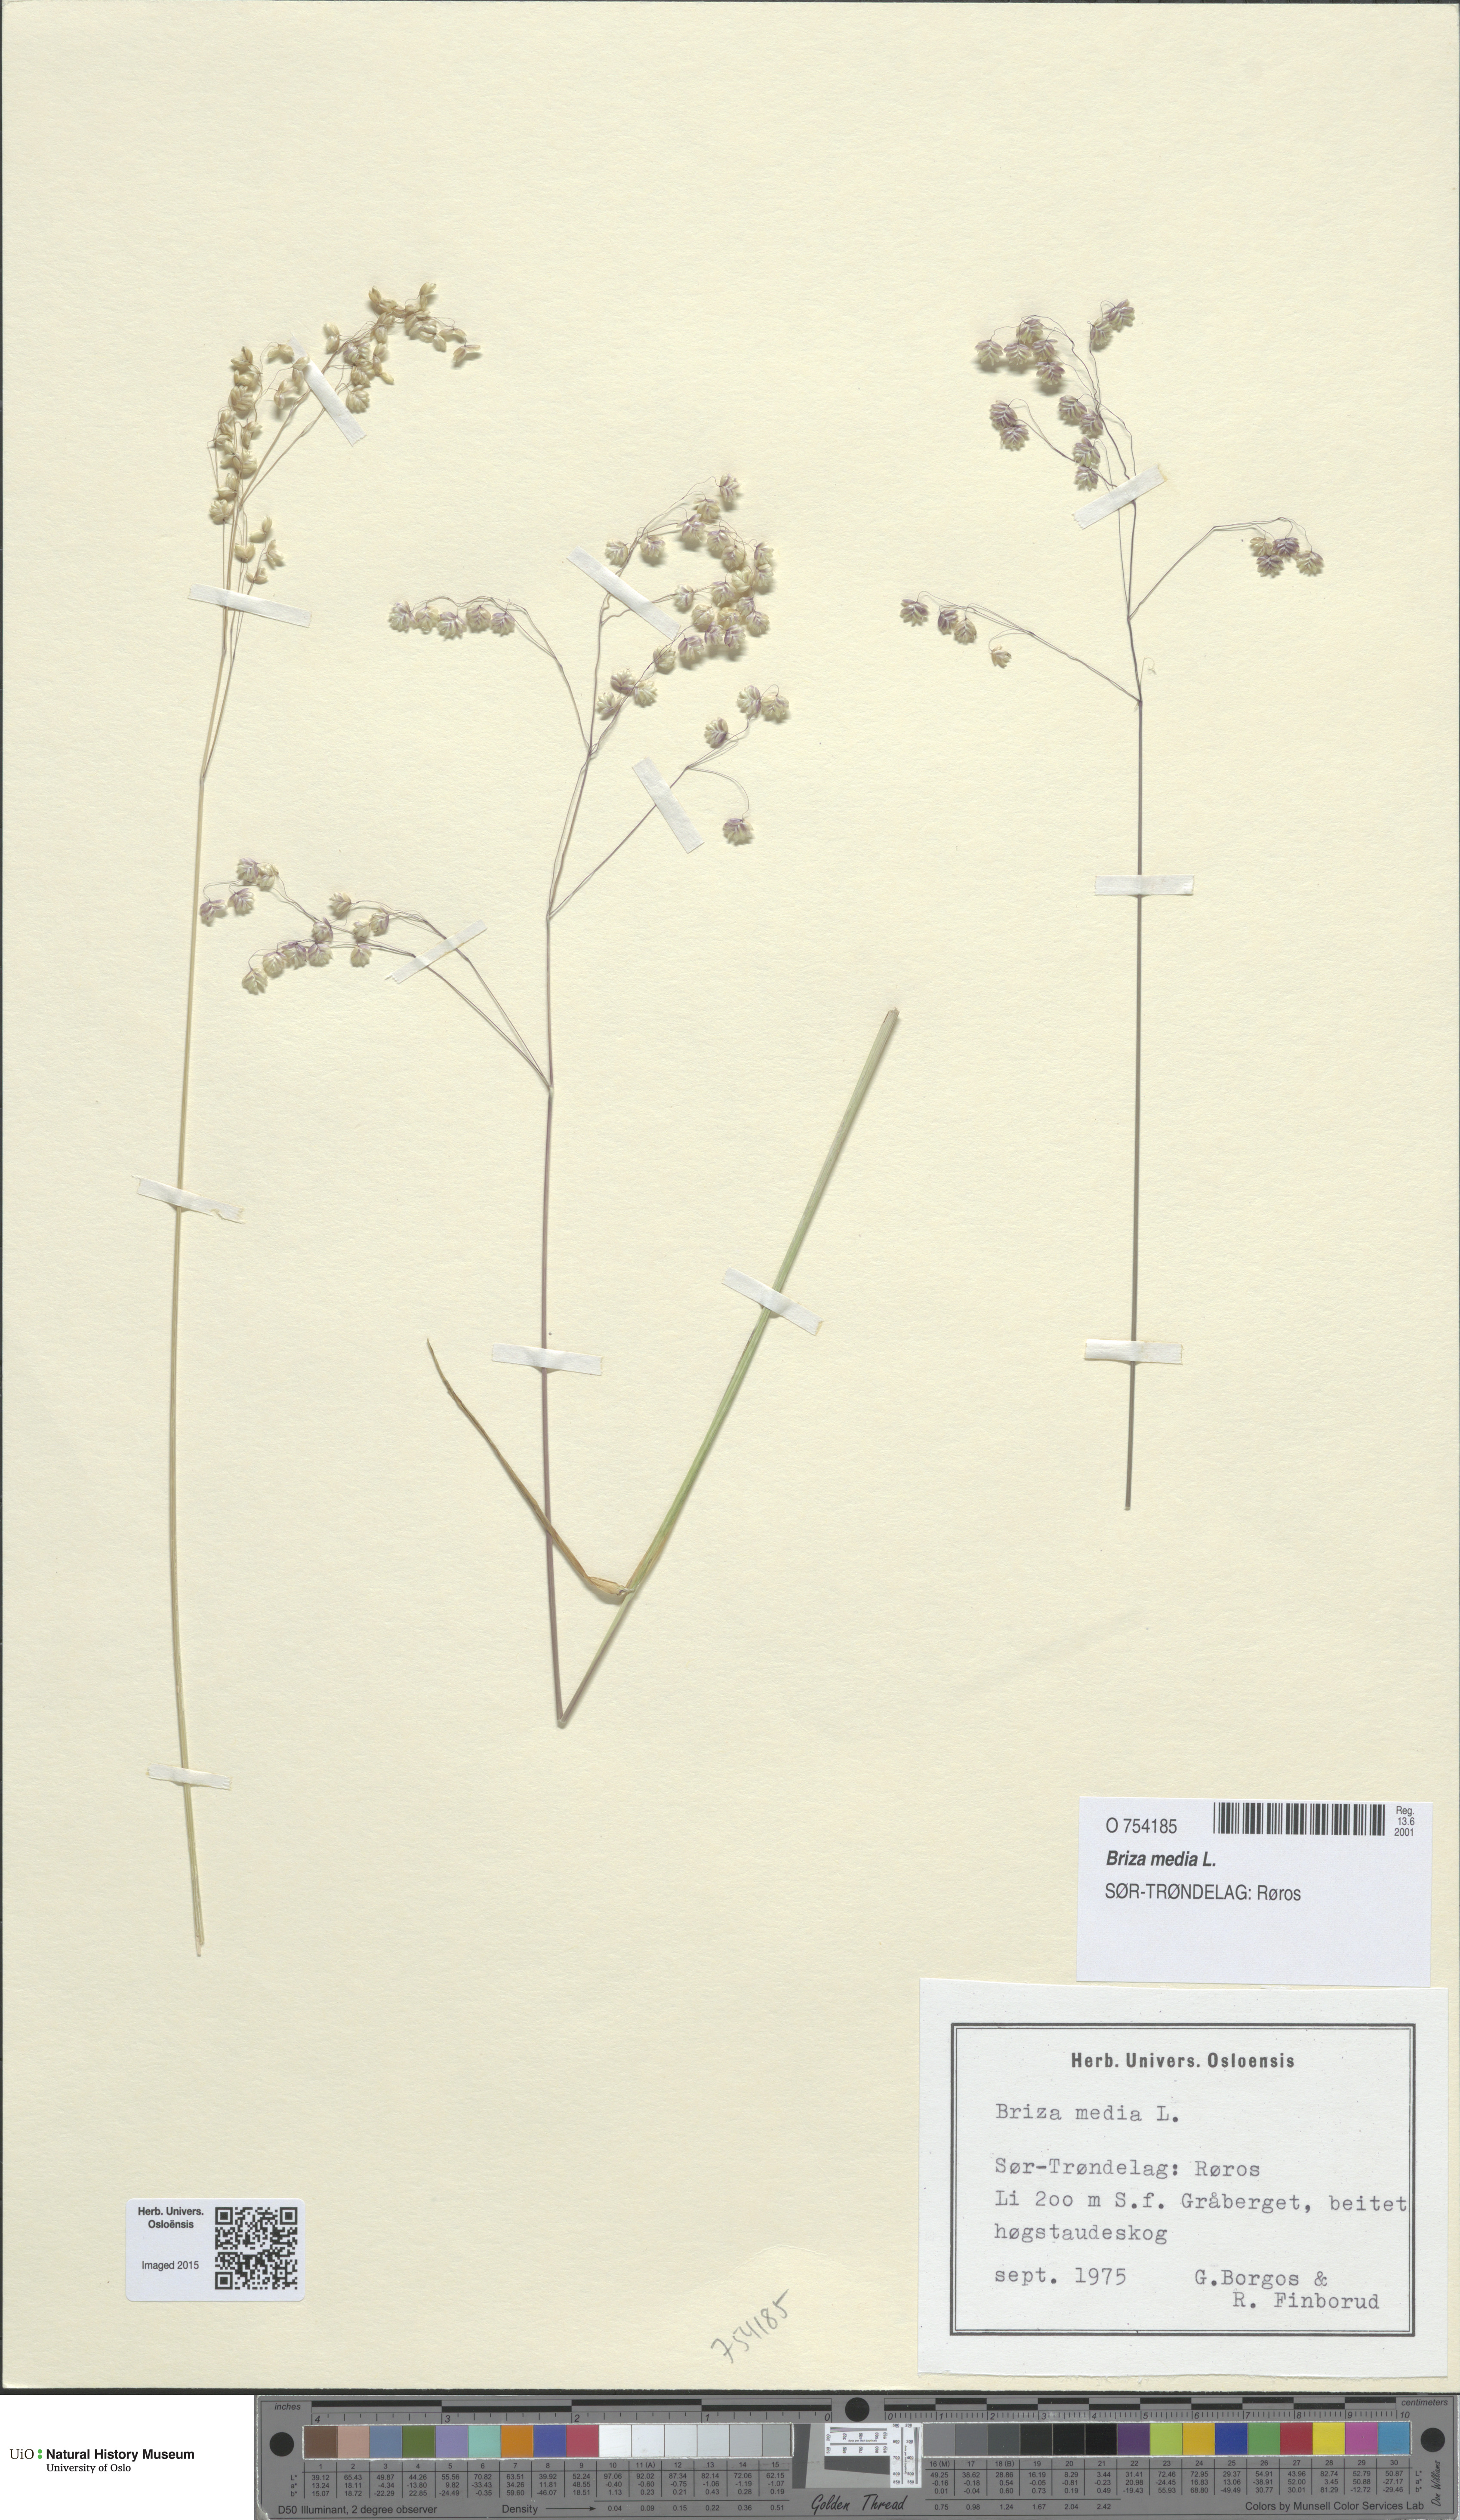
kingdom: Plantae
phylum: Tracheophyta
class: Liliopsida
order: Poales
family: Poaceae
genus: Briza
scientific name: Briza media
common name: Quaking grass
